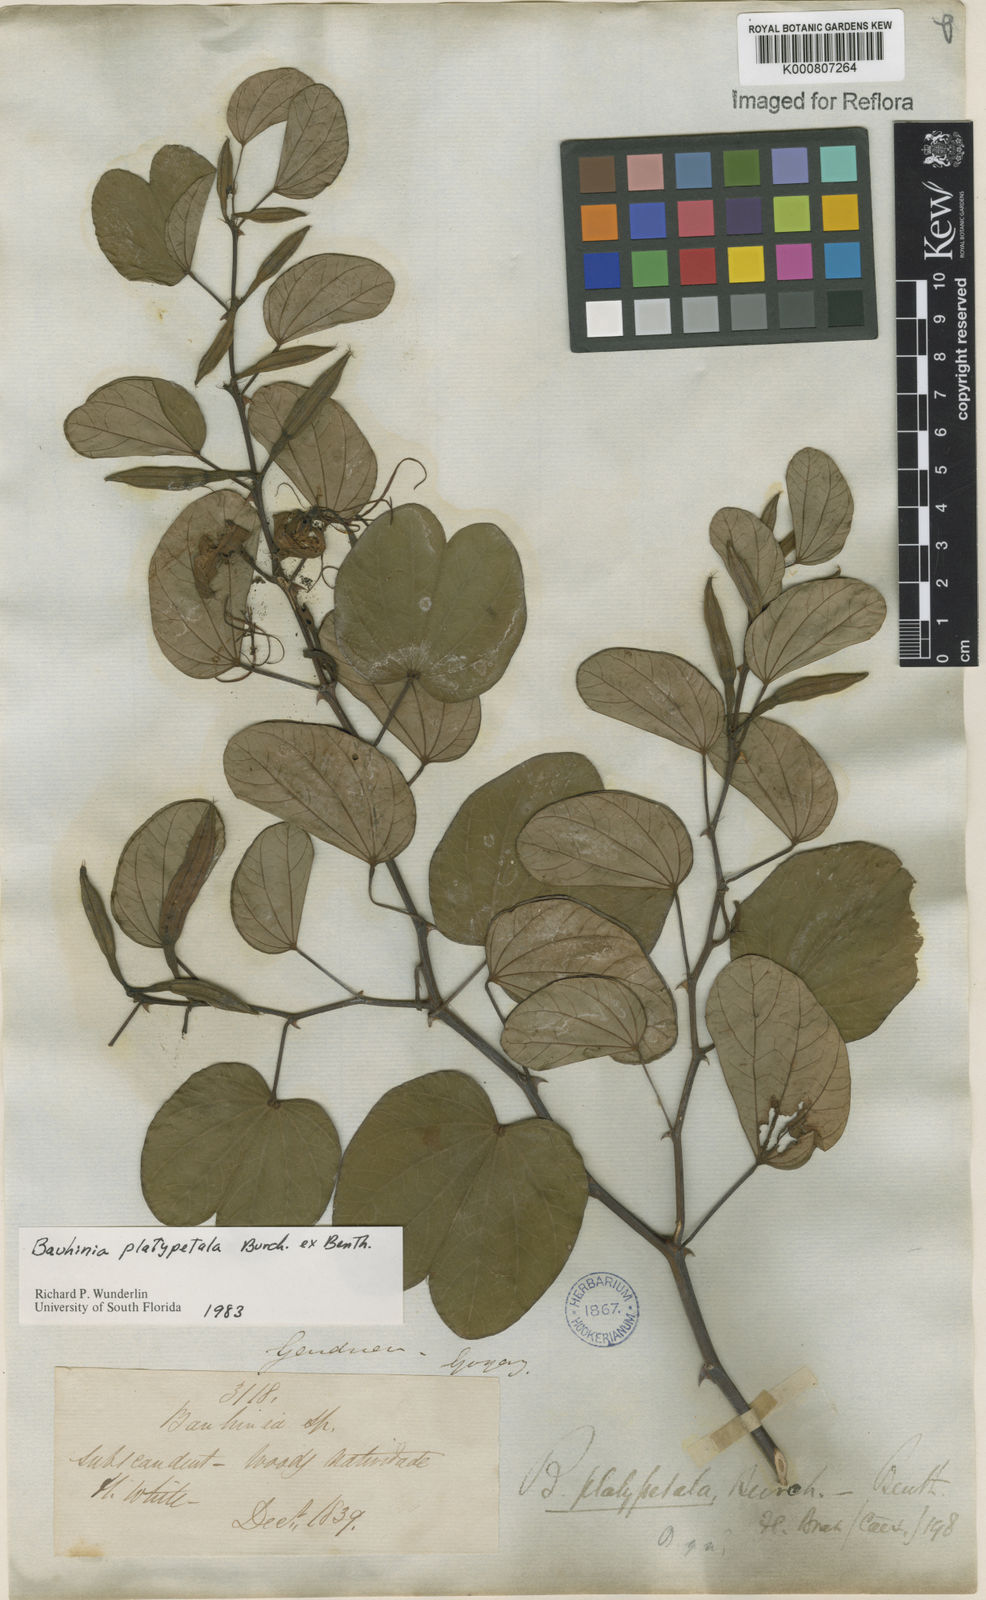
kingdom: Plantae
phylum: Tracheophyta
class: Magnoliopsida
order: Fabales
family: Fabaceae
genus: Bauhinia
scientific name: Bauhinia platypetala
